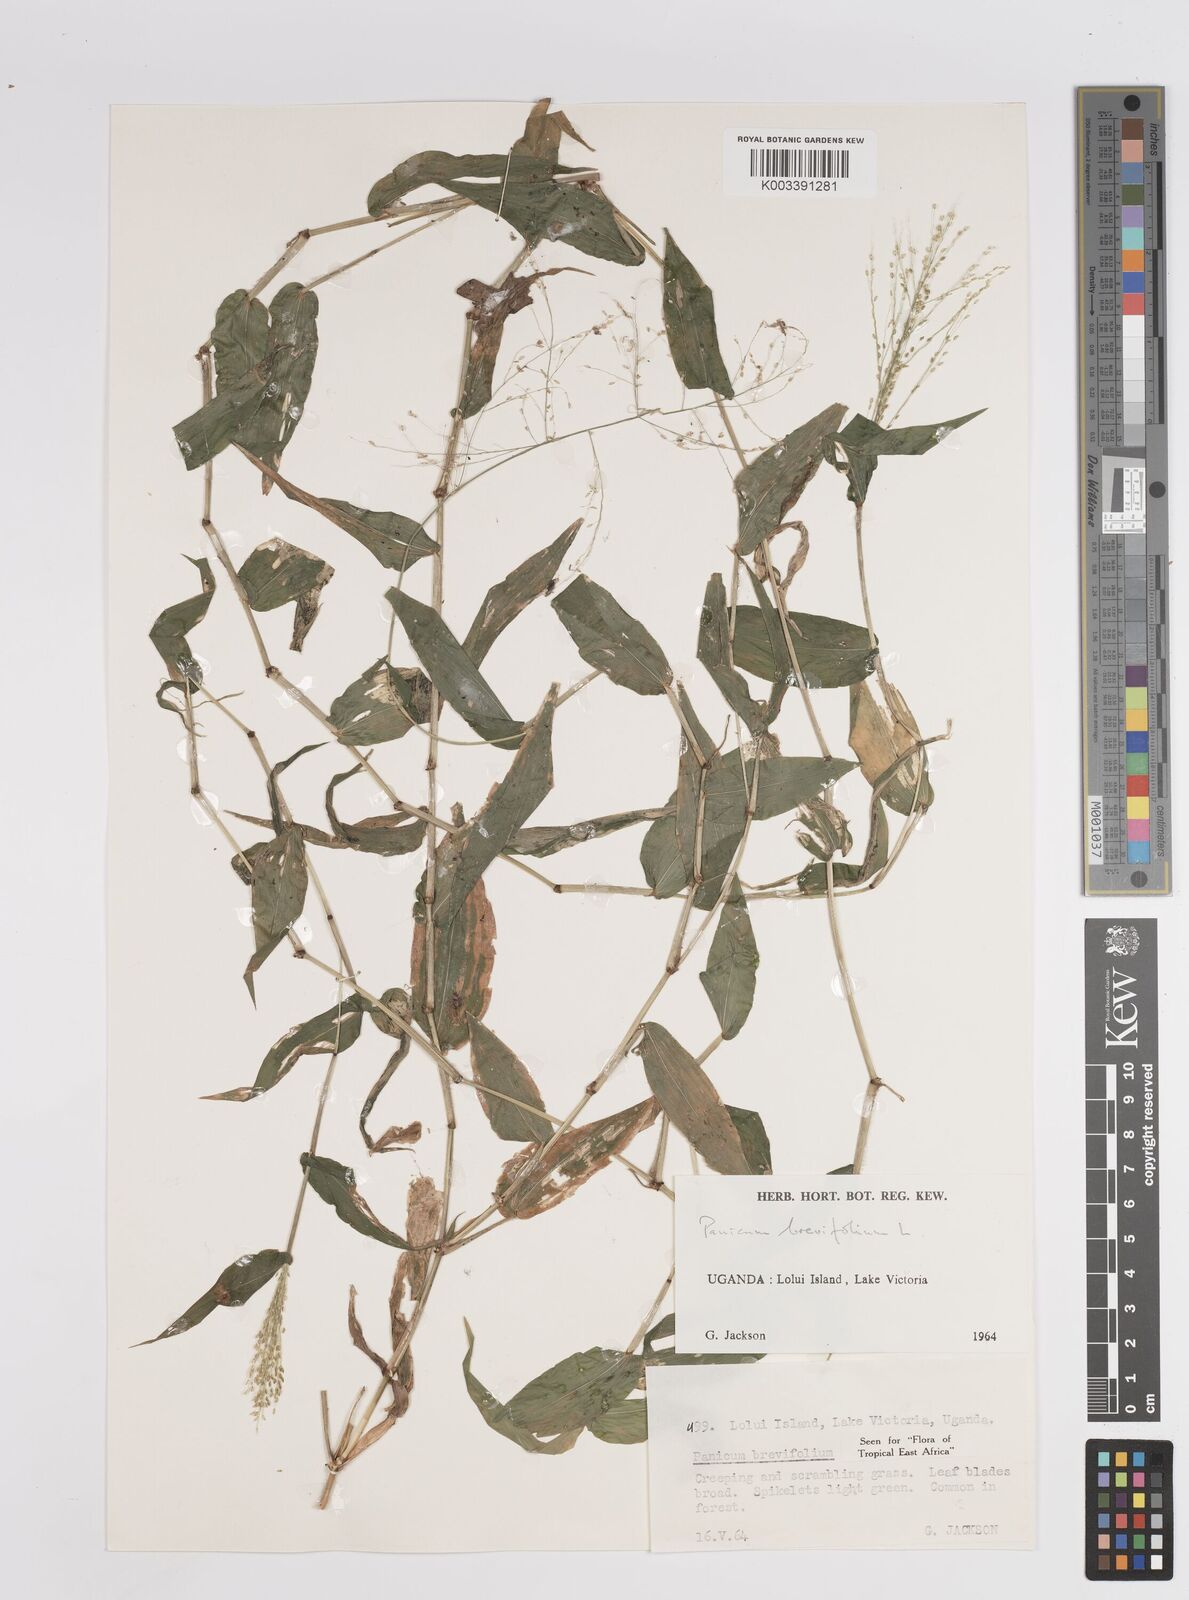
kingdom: Plantae
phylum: Tracheophyta
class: Liliopsida
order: Poales
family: Poaceae
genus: Panicum
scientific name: Panicum brevifolium
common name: Shortleaf panic grass
